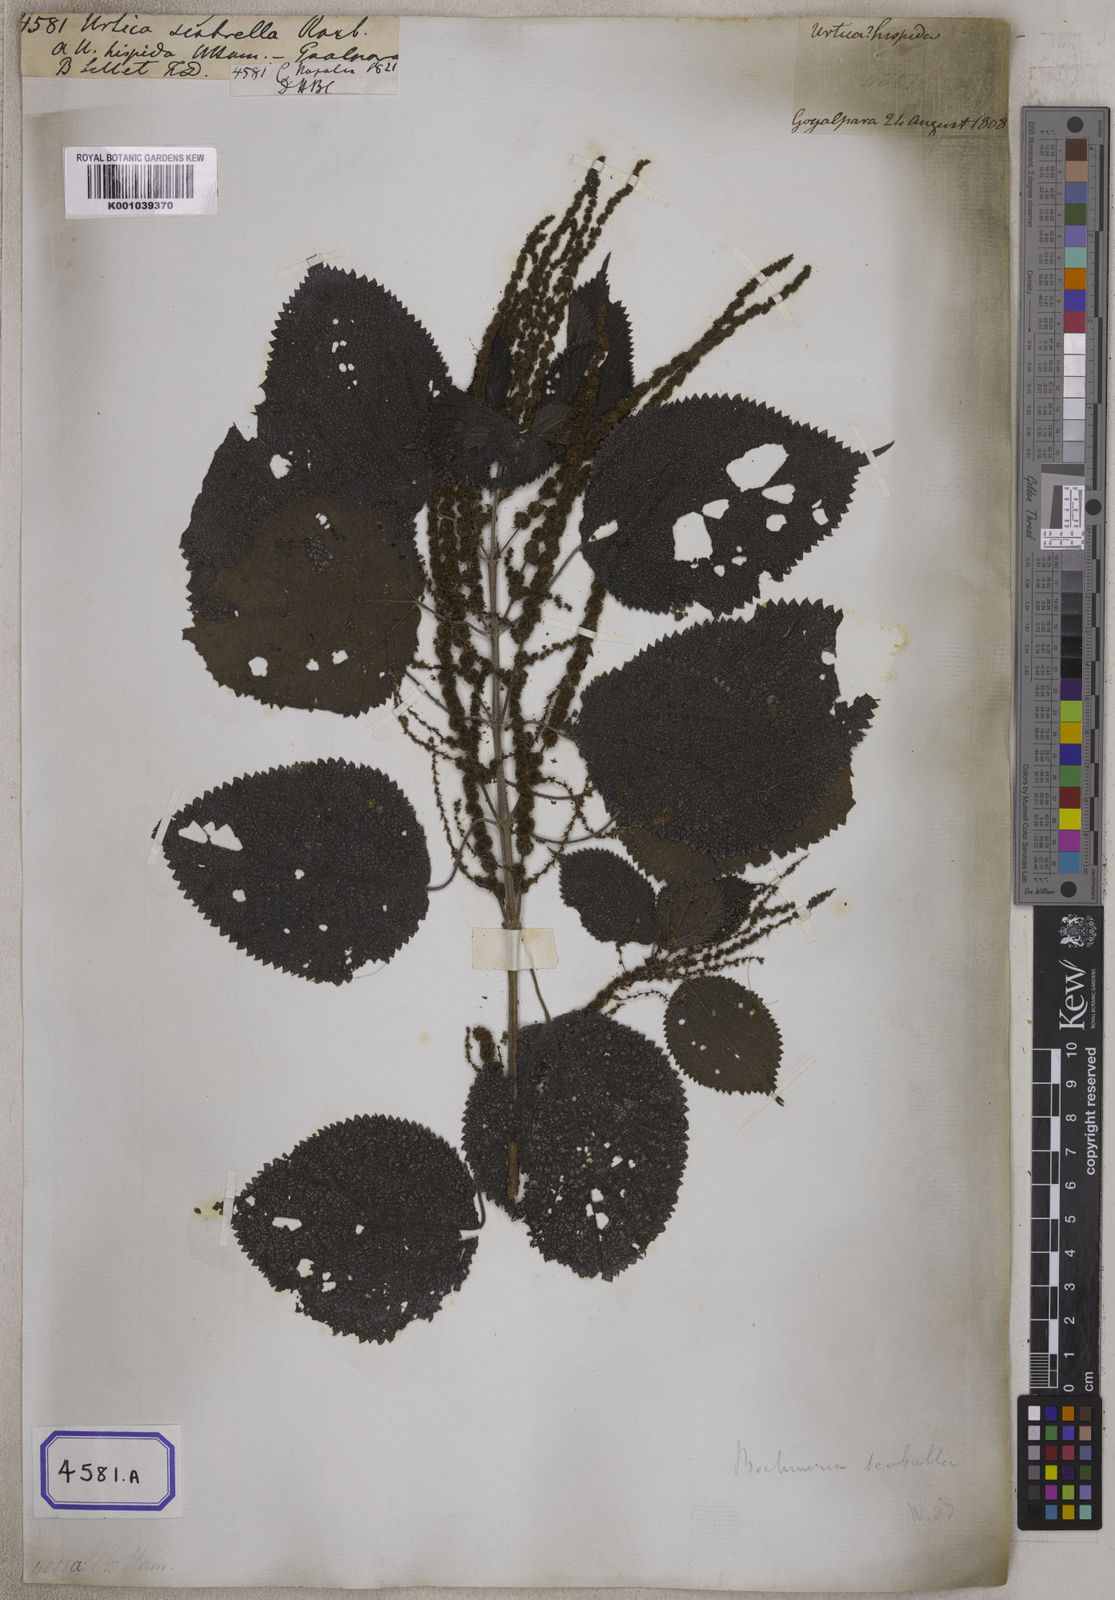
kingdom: Plantae
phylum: Tracheophyta
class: Magnoliopsida
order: Rosales
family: Urticaceae
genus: Boehmeria
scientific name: Boehmeria virgata
